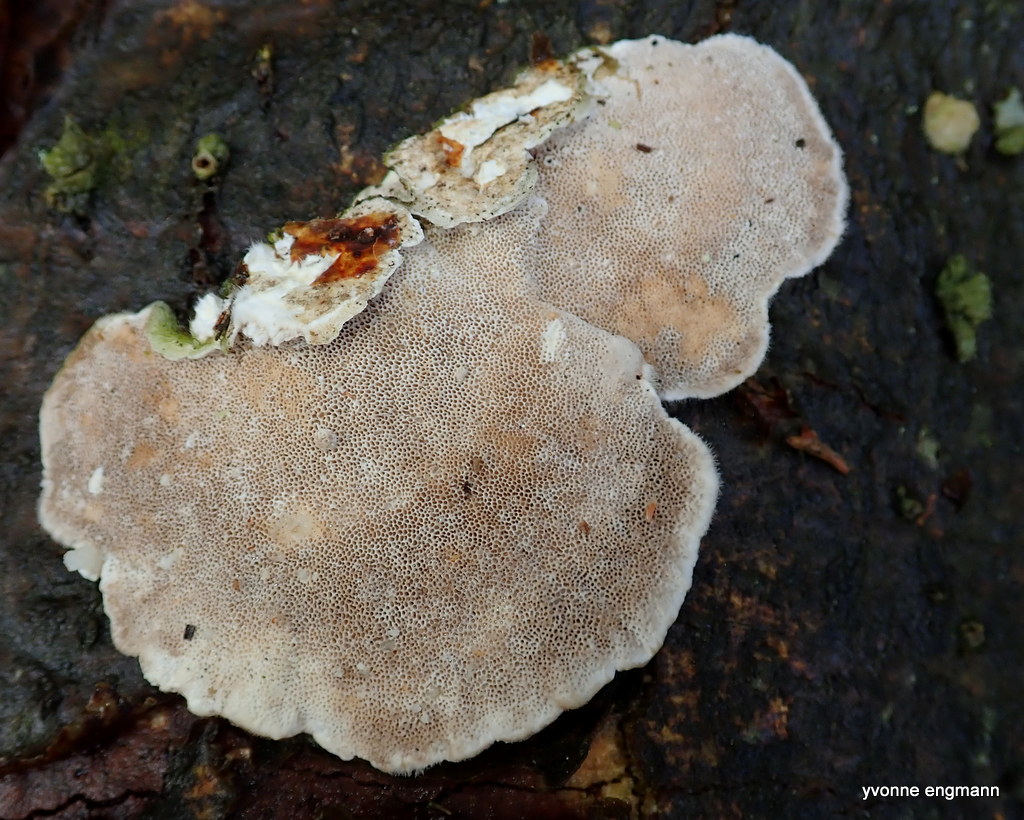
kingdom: Fungi
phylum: Basidiomycota
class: Agaricomycetes
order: Polyporales
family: Polyporaceae
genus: Trametes
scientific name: Trametes hirsuta
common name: håret læderporesvamp
